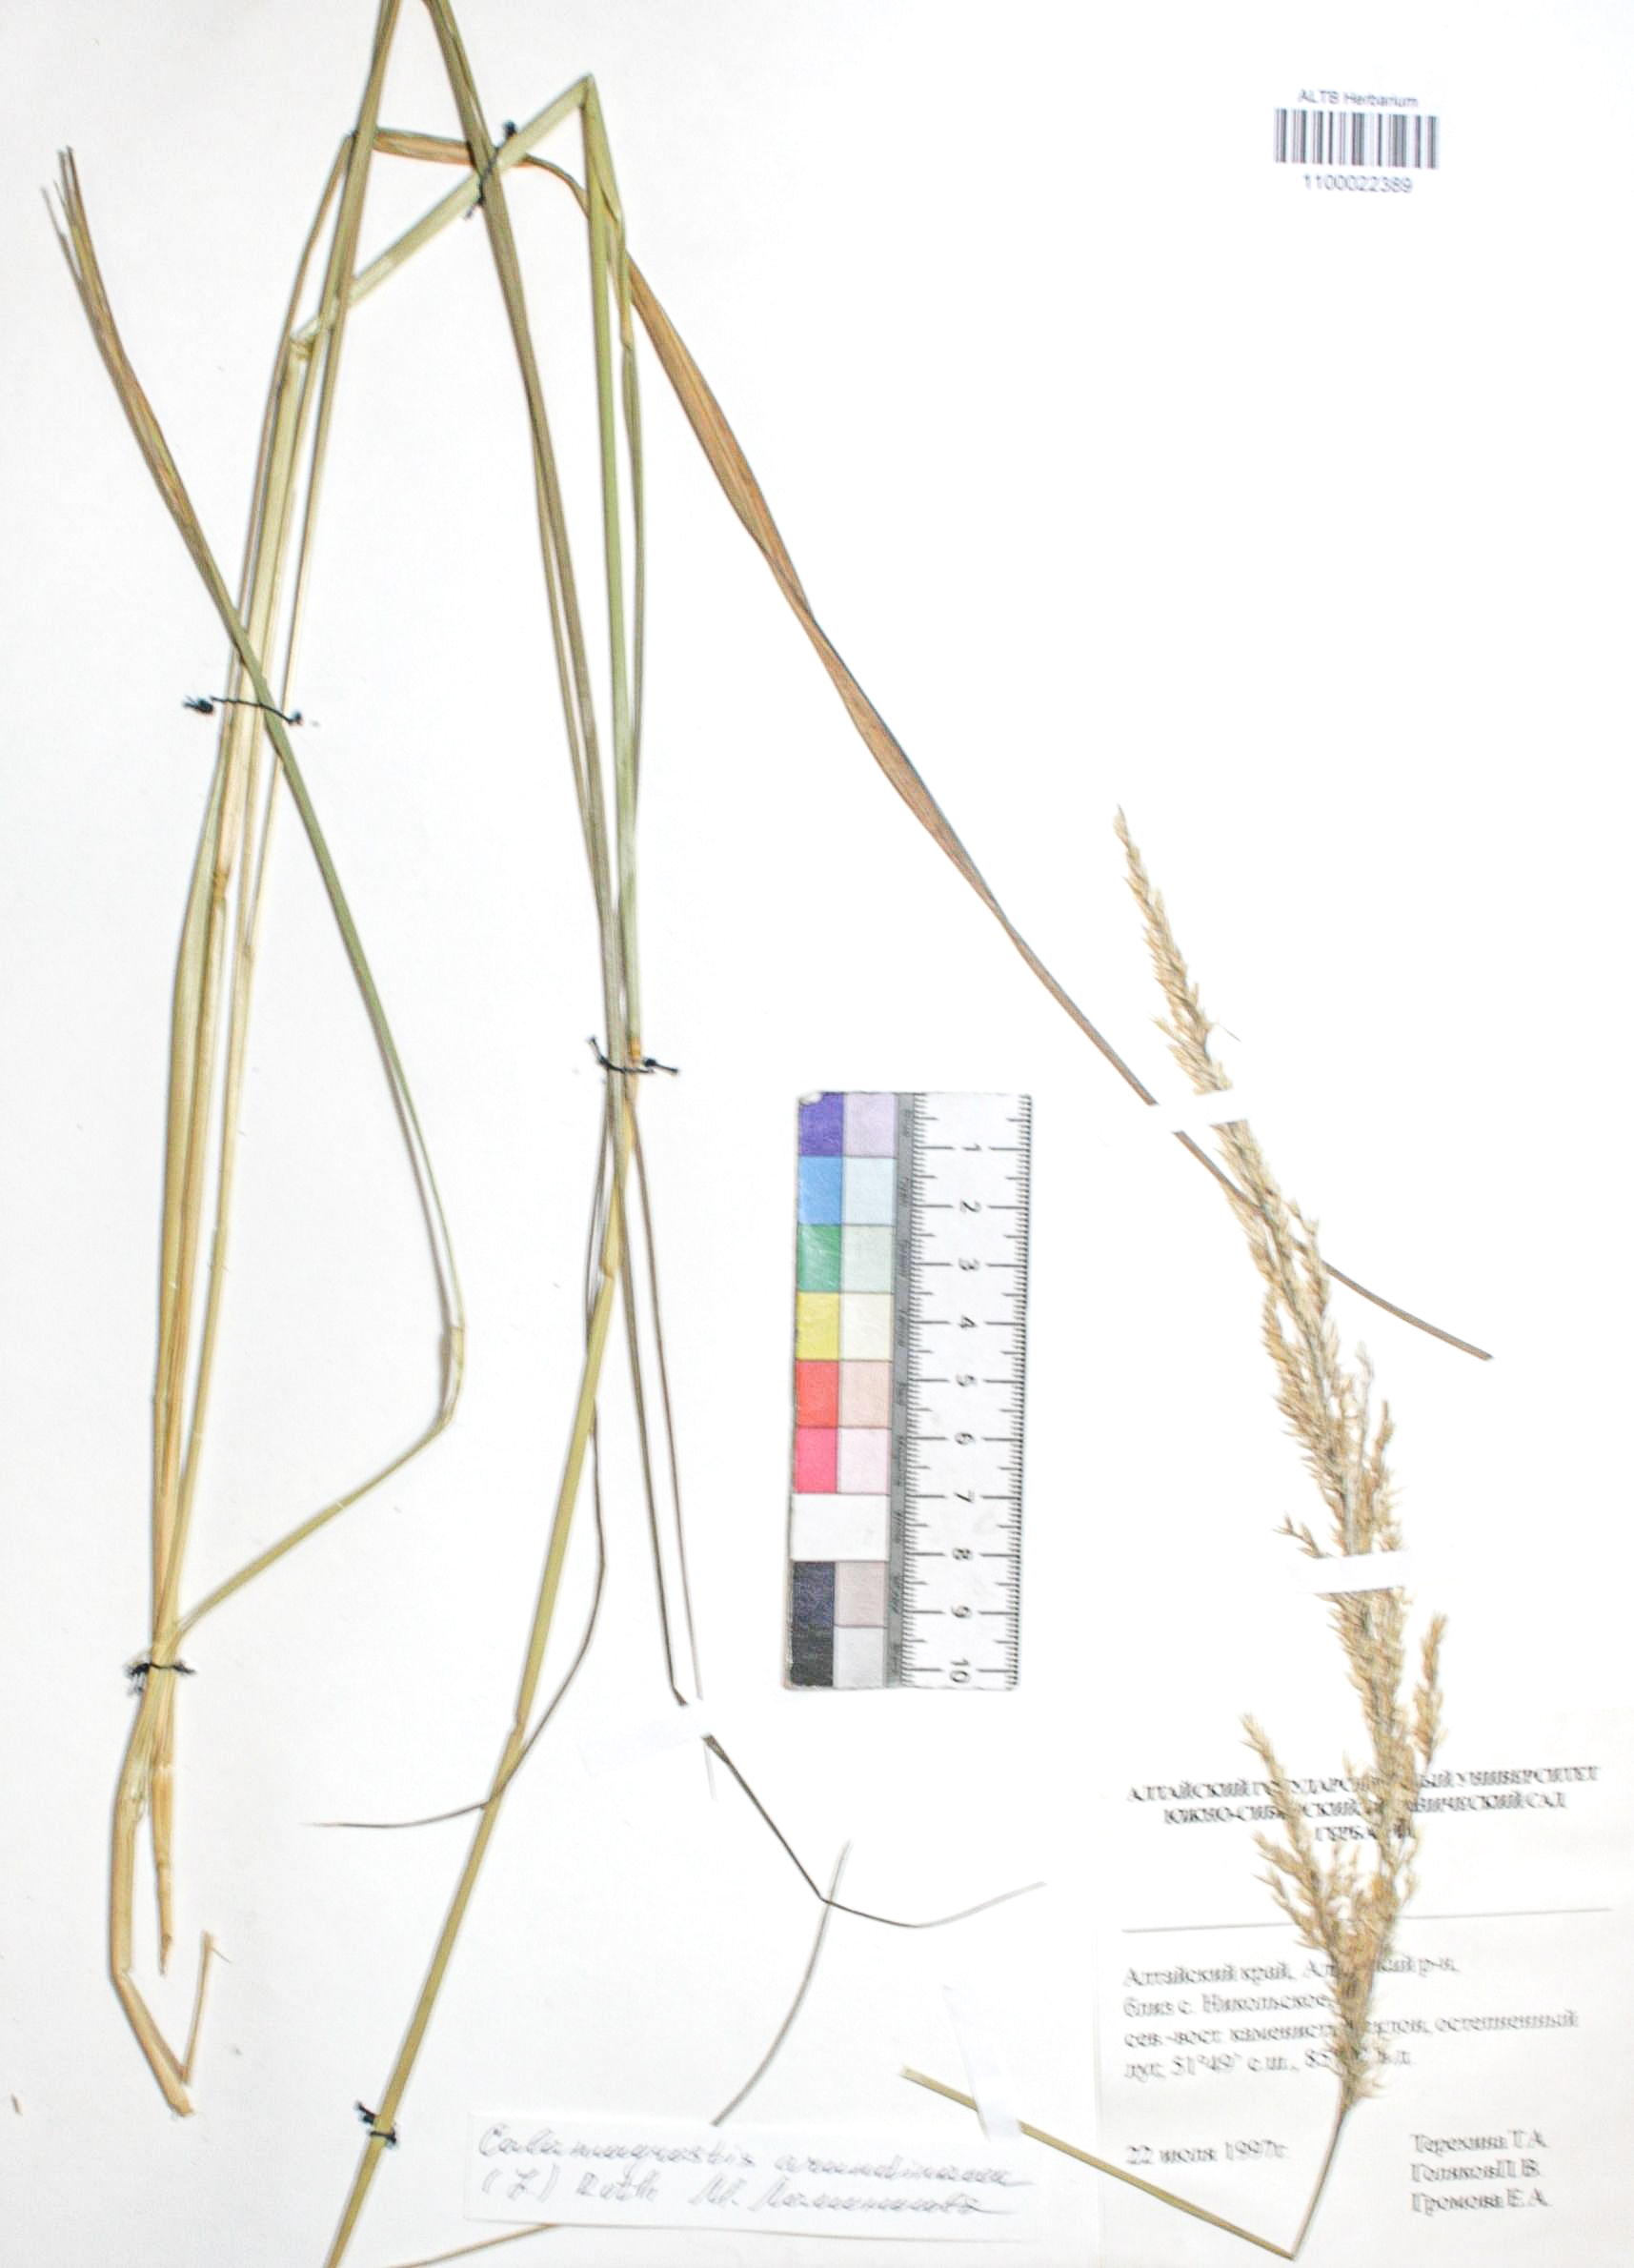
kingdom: Plantae
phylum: Tracheophyta
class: Liliopsida
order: Poales
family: Poaceae
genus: Calamagrostis
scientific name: Calamagrostis arundinacea
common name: Metskastik
